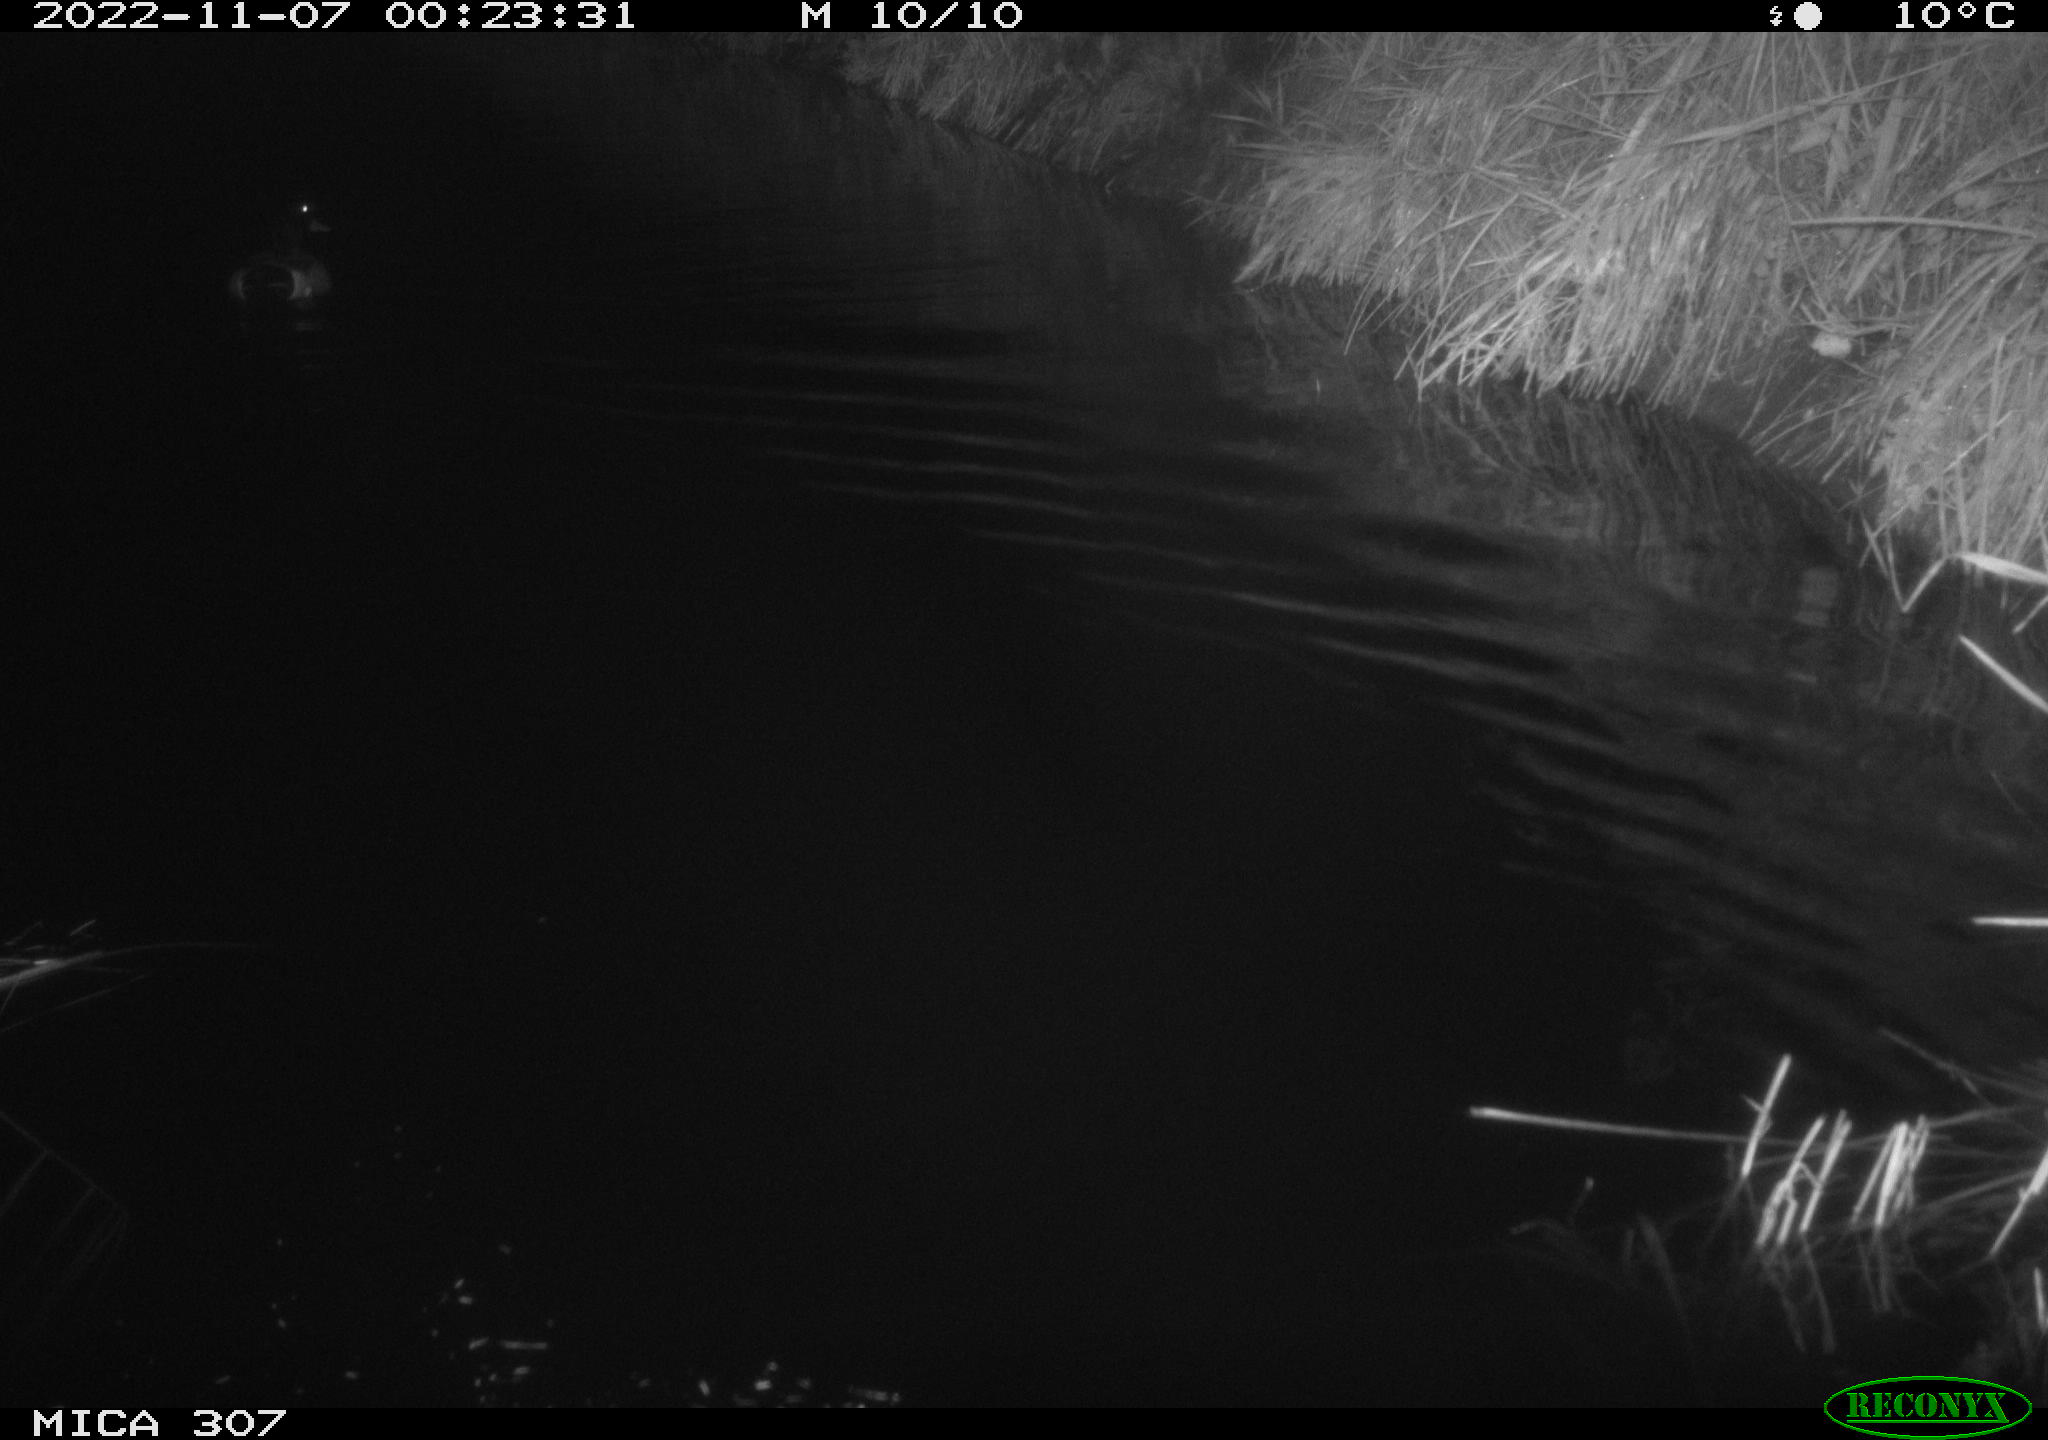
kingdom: Animalia
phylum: Chordata
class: Aves
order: Anseriformes
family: Anatidae
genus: Anas
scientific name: Anas
